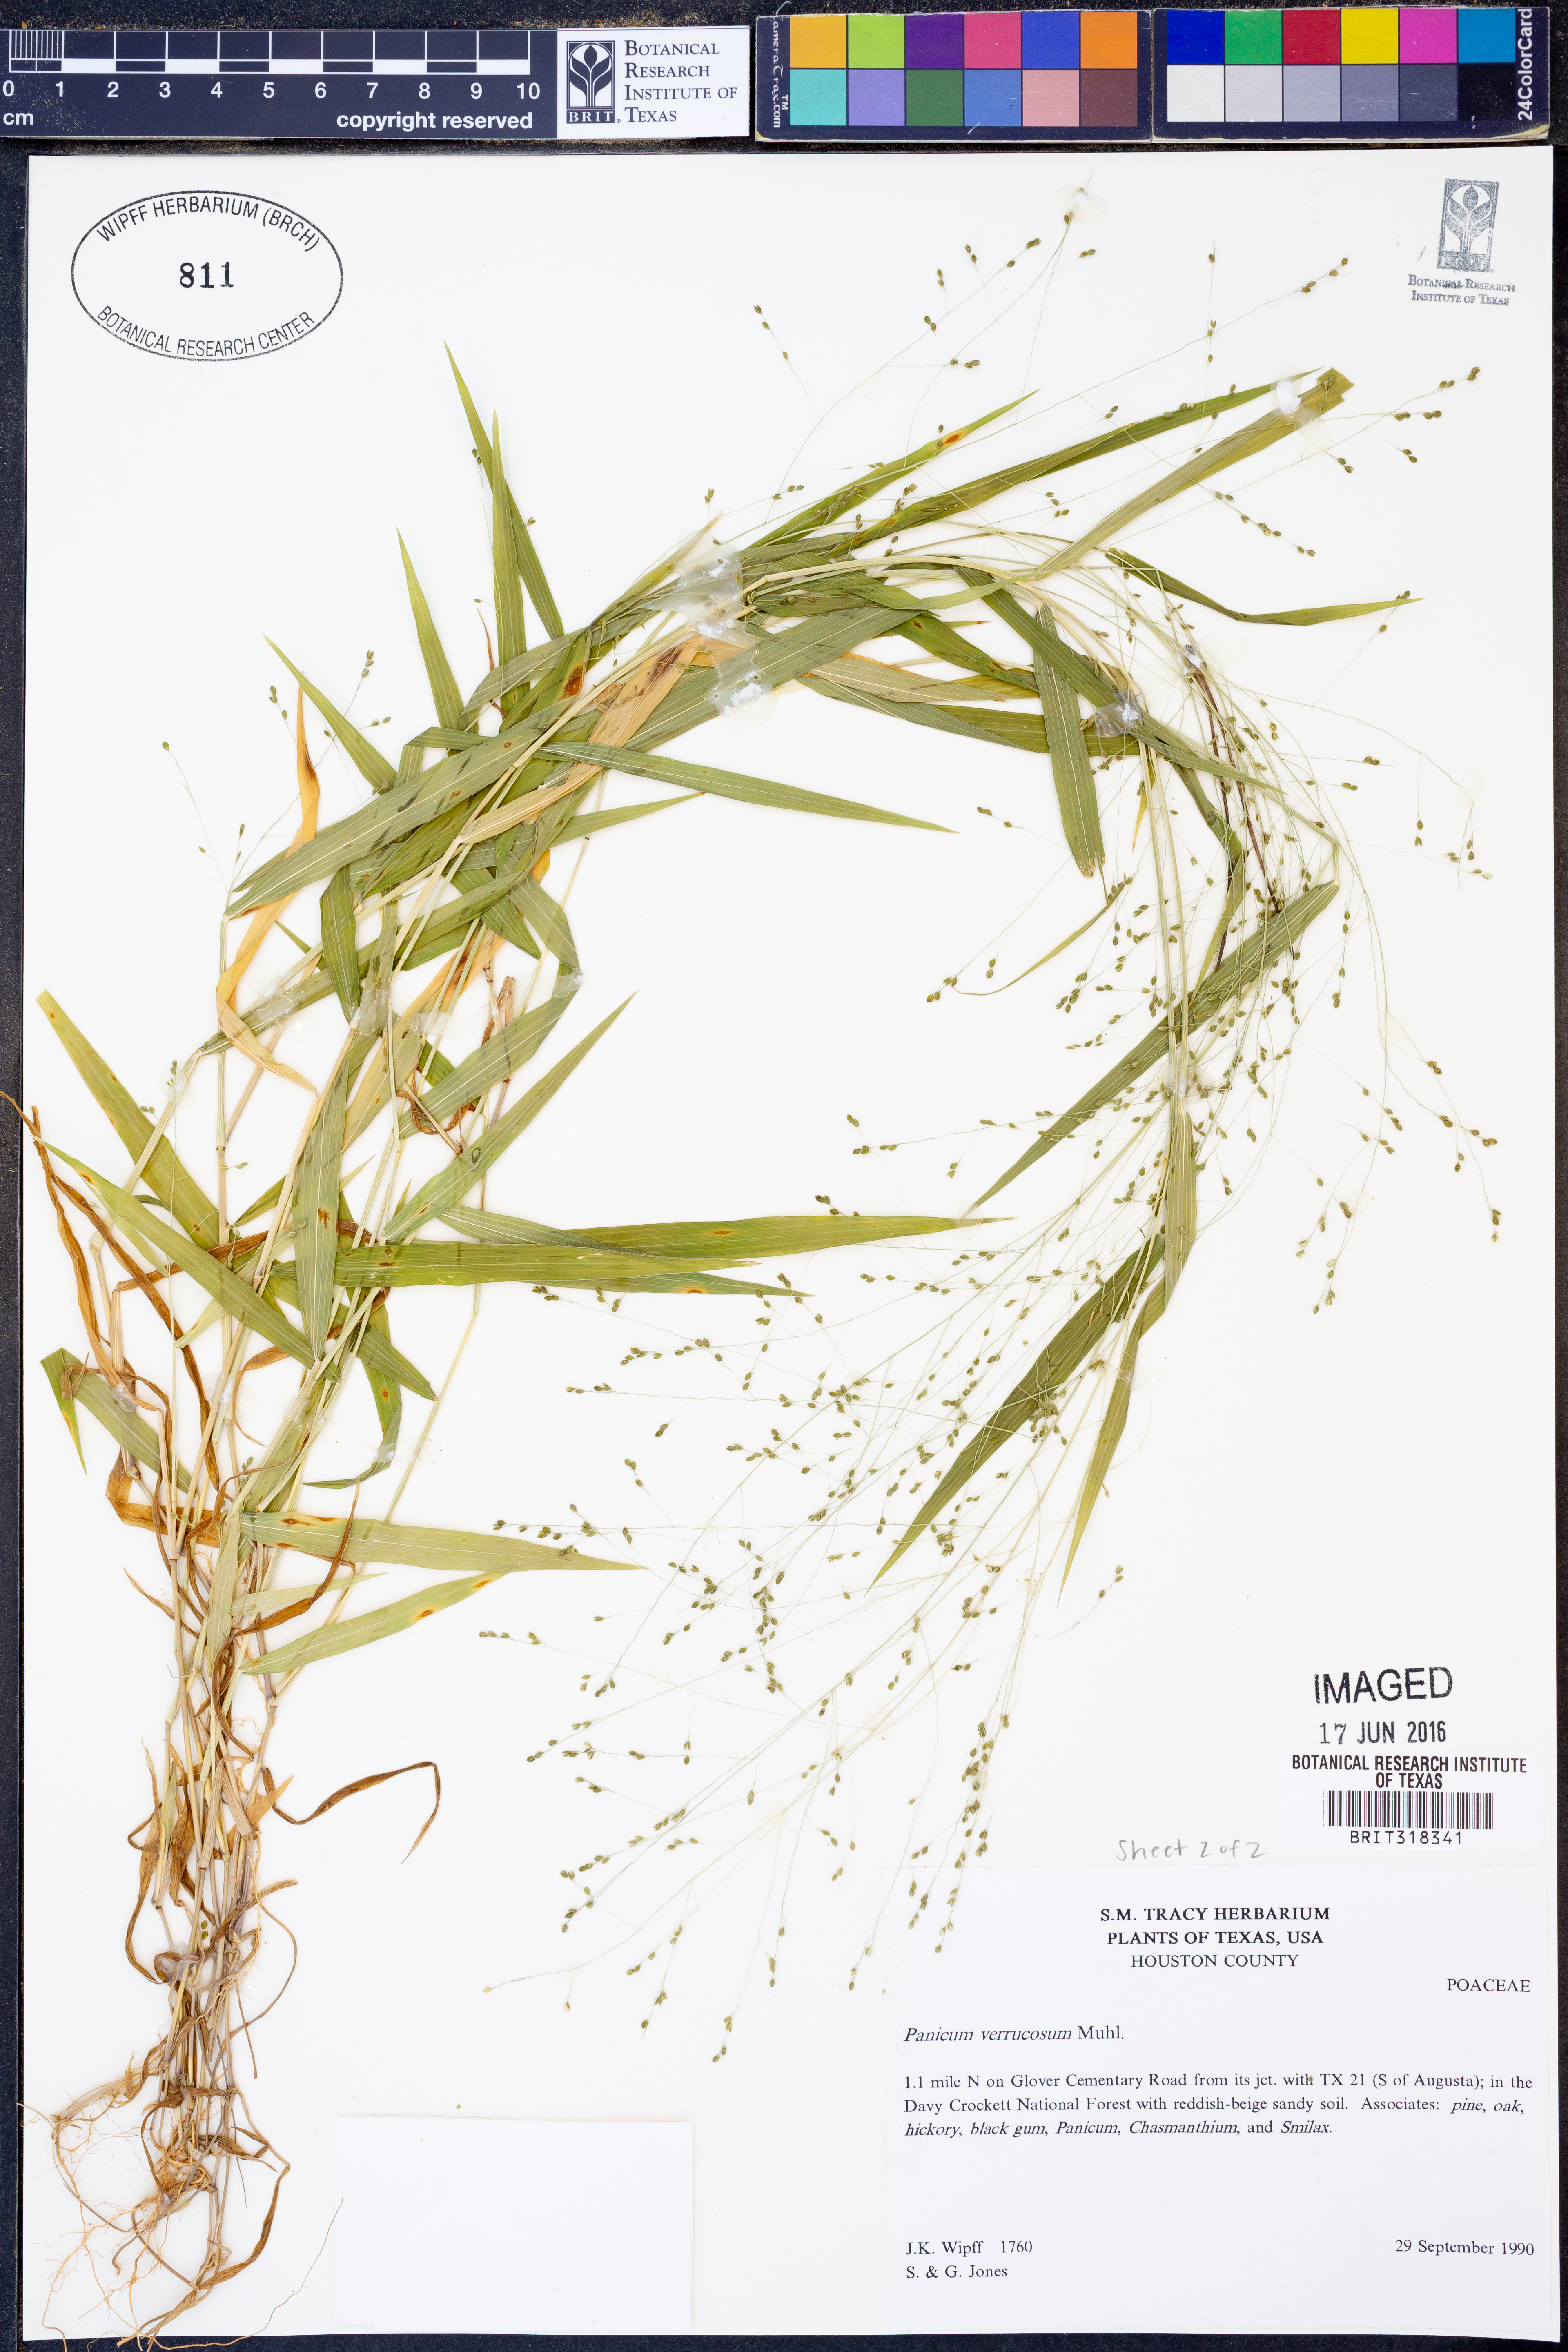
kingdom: Plantae
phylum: Tracheophyta
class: Liliopsida
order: Poales
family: Poaceae
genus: Kellochloa
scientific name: Kellochloa verrucosa
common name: Warty panic grass
